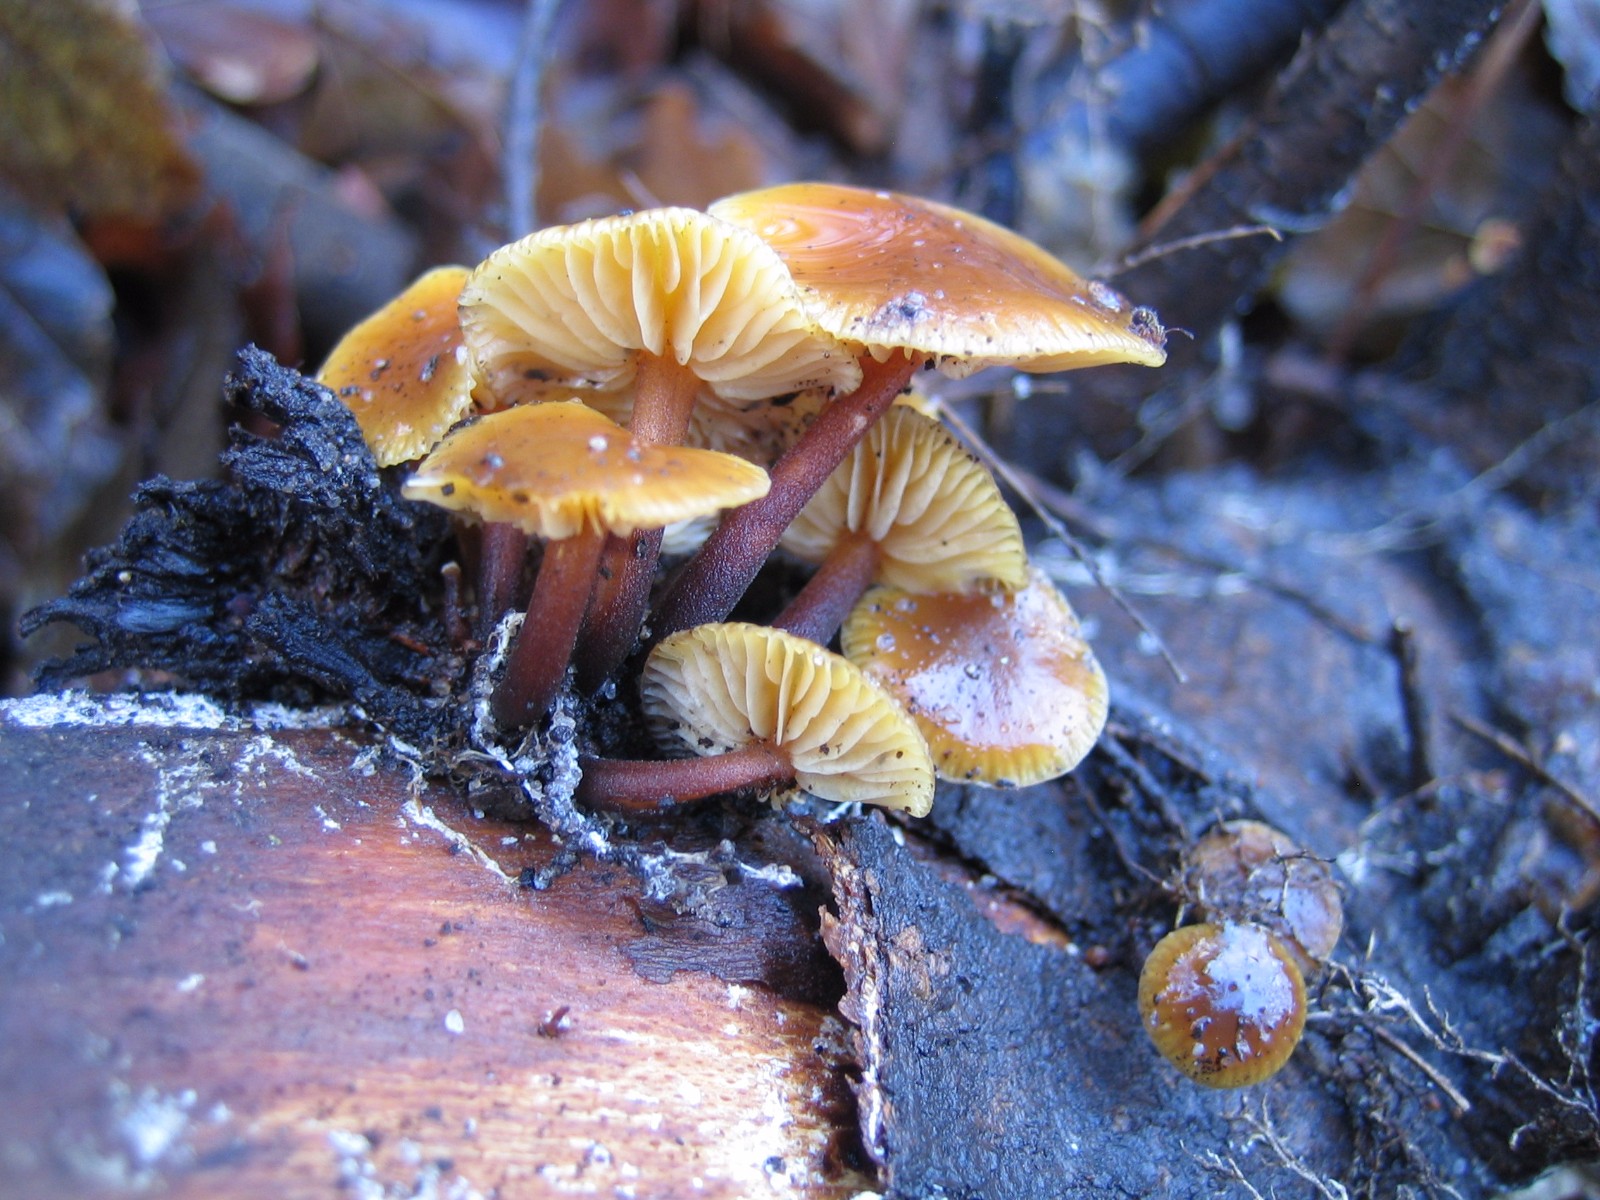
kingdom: Fungi
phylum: Basidiomycota
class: Agaricomycetes
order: Agaricales
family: Physalacriaceae
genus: Flammulina
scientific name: Flammulina velutipes
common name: gul fløjlsfod
